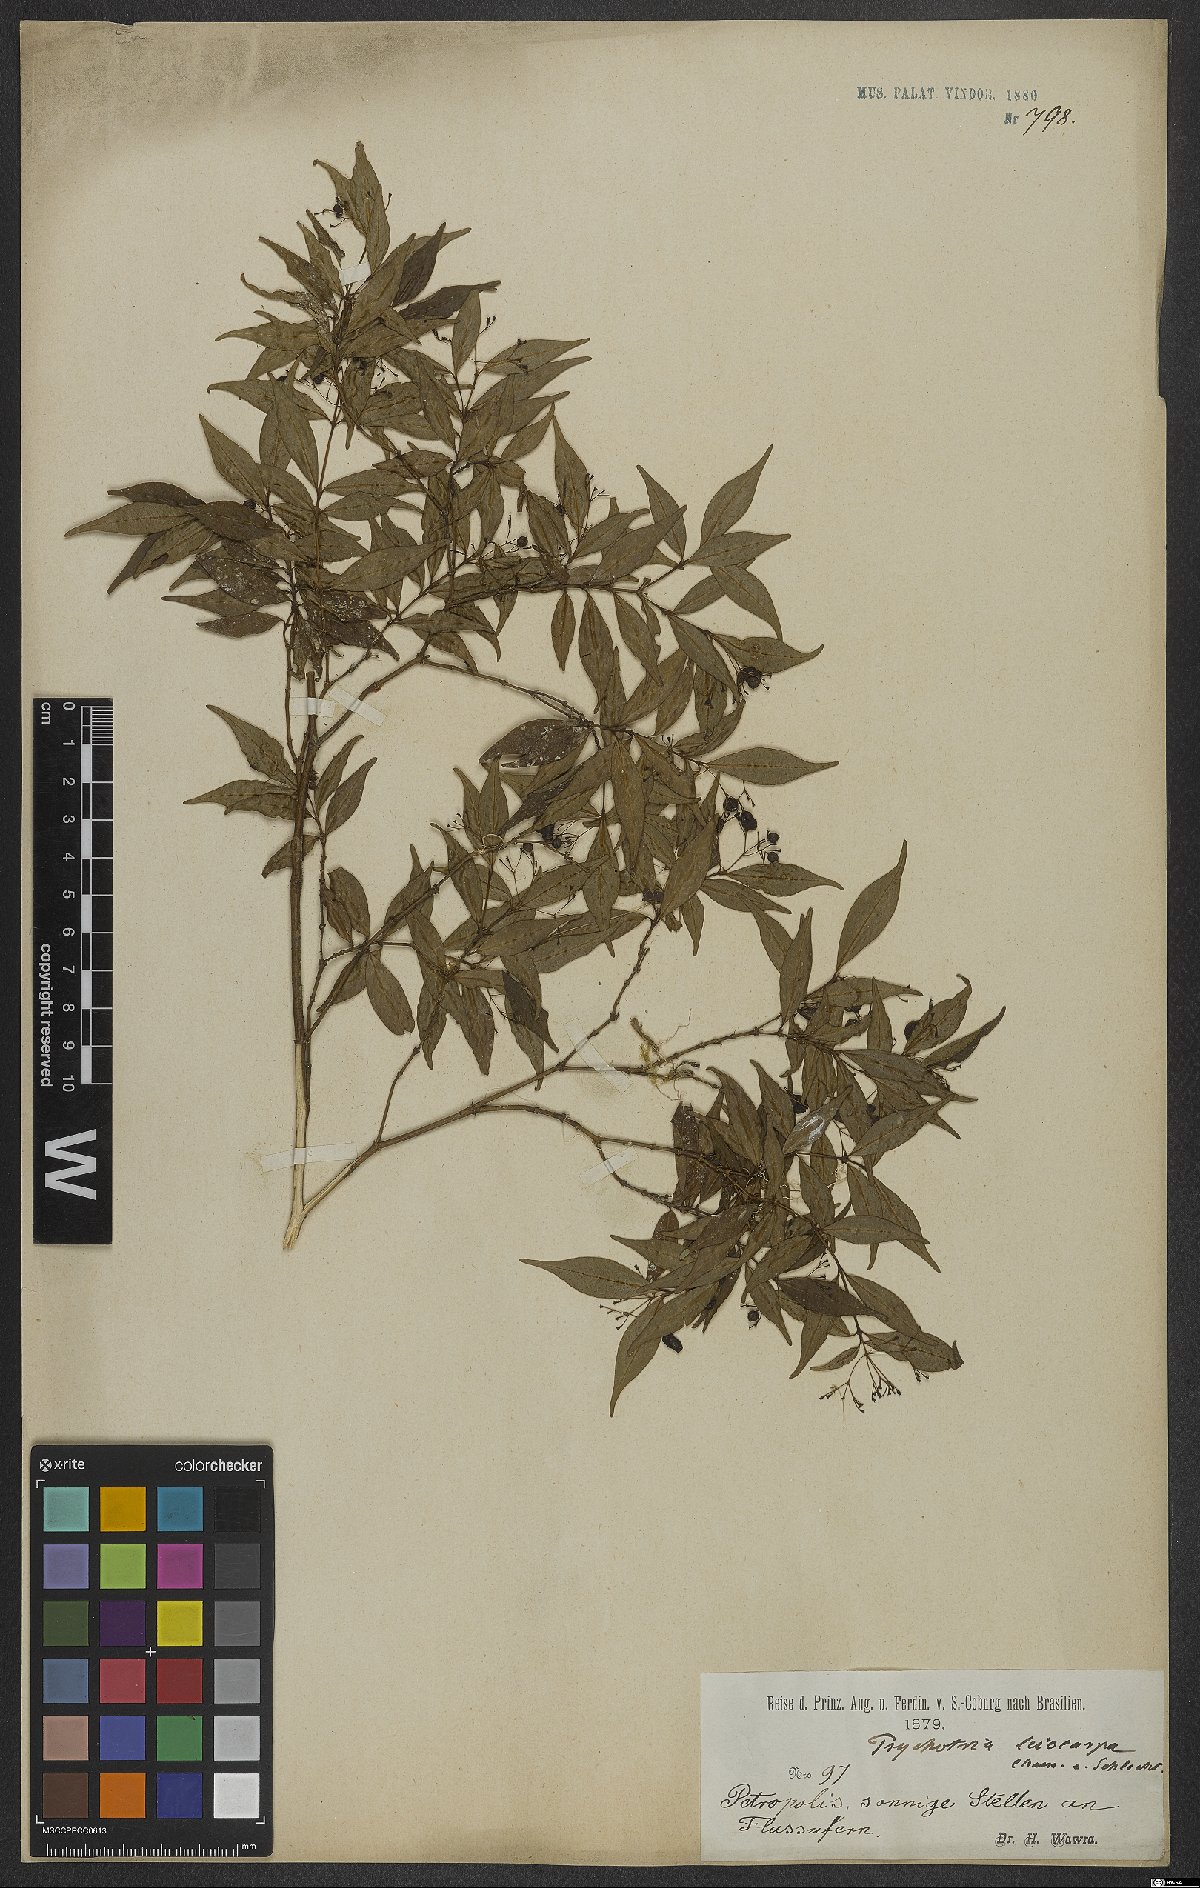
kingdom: Plantae
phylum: Tracheophyta
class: Magnoliopsida
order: Gentianales
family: Rubiaceae
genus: Psychotria
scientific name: Psychotria leiocarpa
